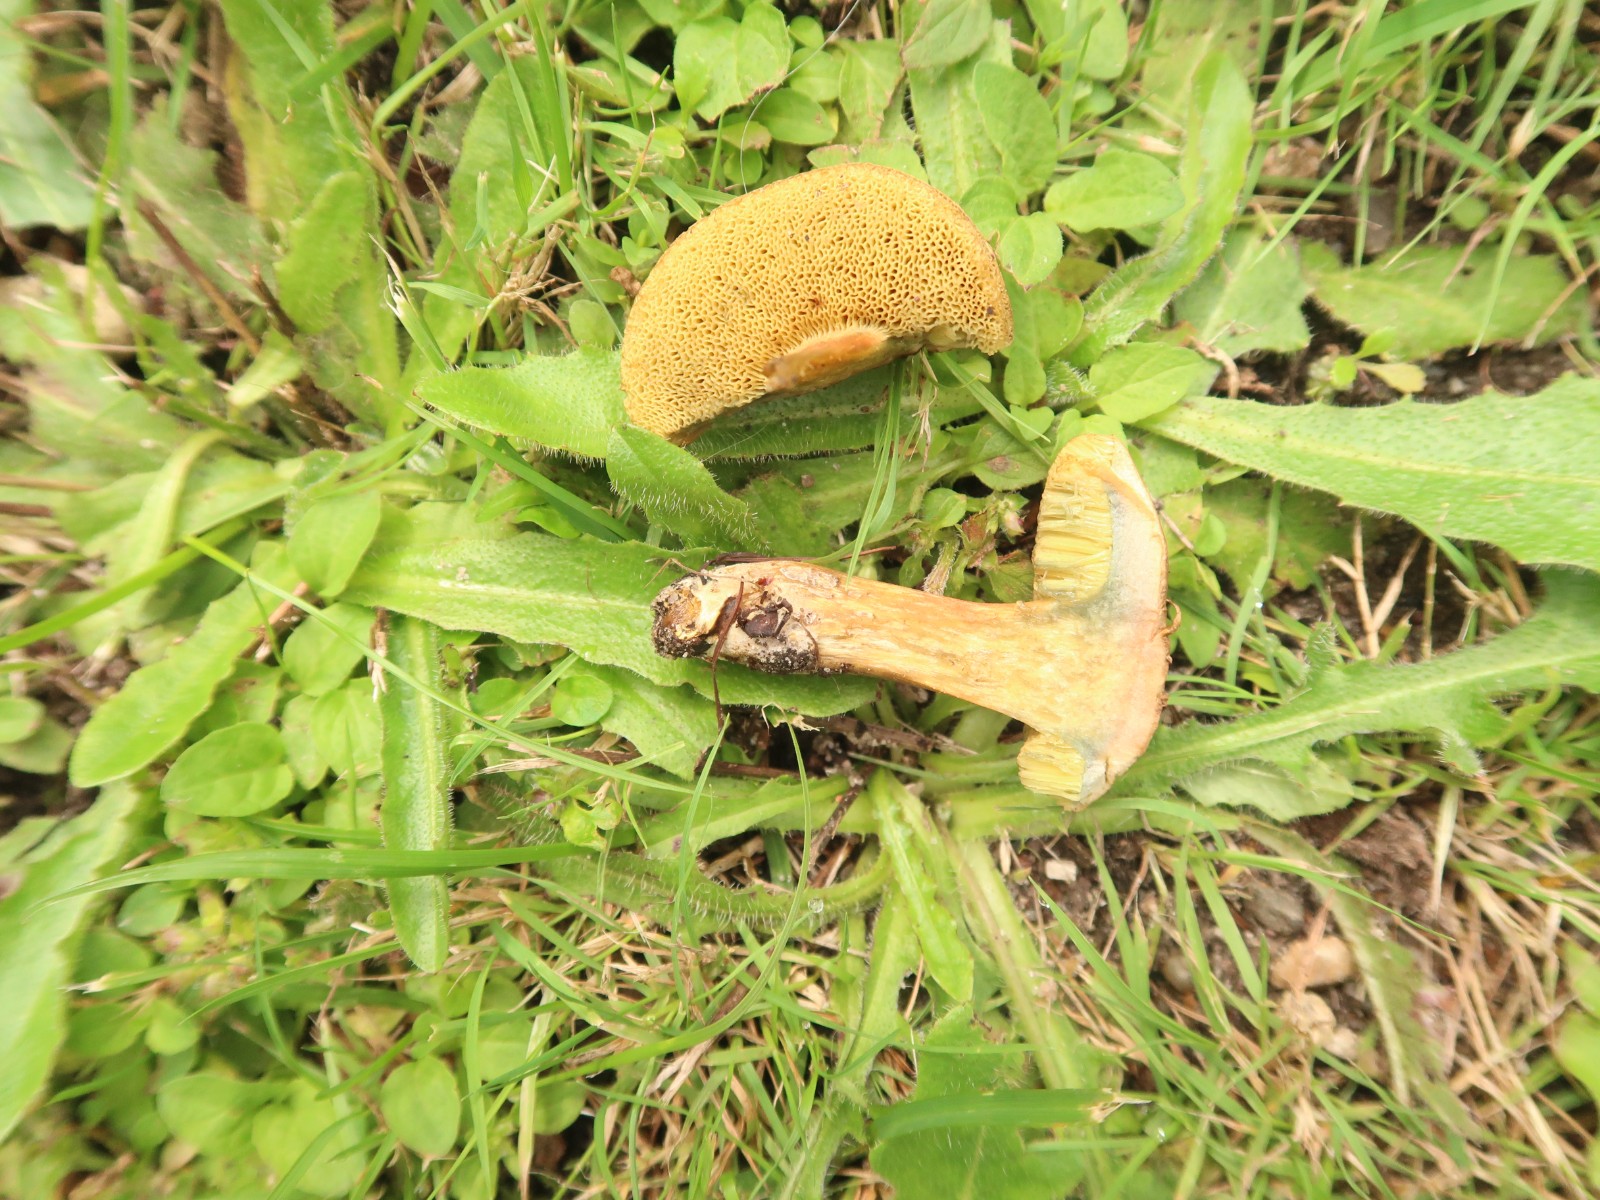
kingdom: Fungi
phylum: Basidiomycota
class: Agaricomycetes
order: Boletales
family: Boletaceae
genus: Hortiboletus
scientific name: Hortiboletus bubalinus
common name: aurora-rørhat
